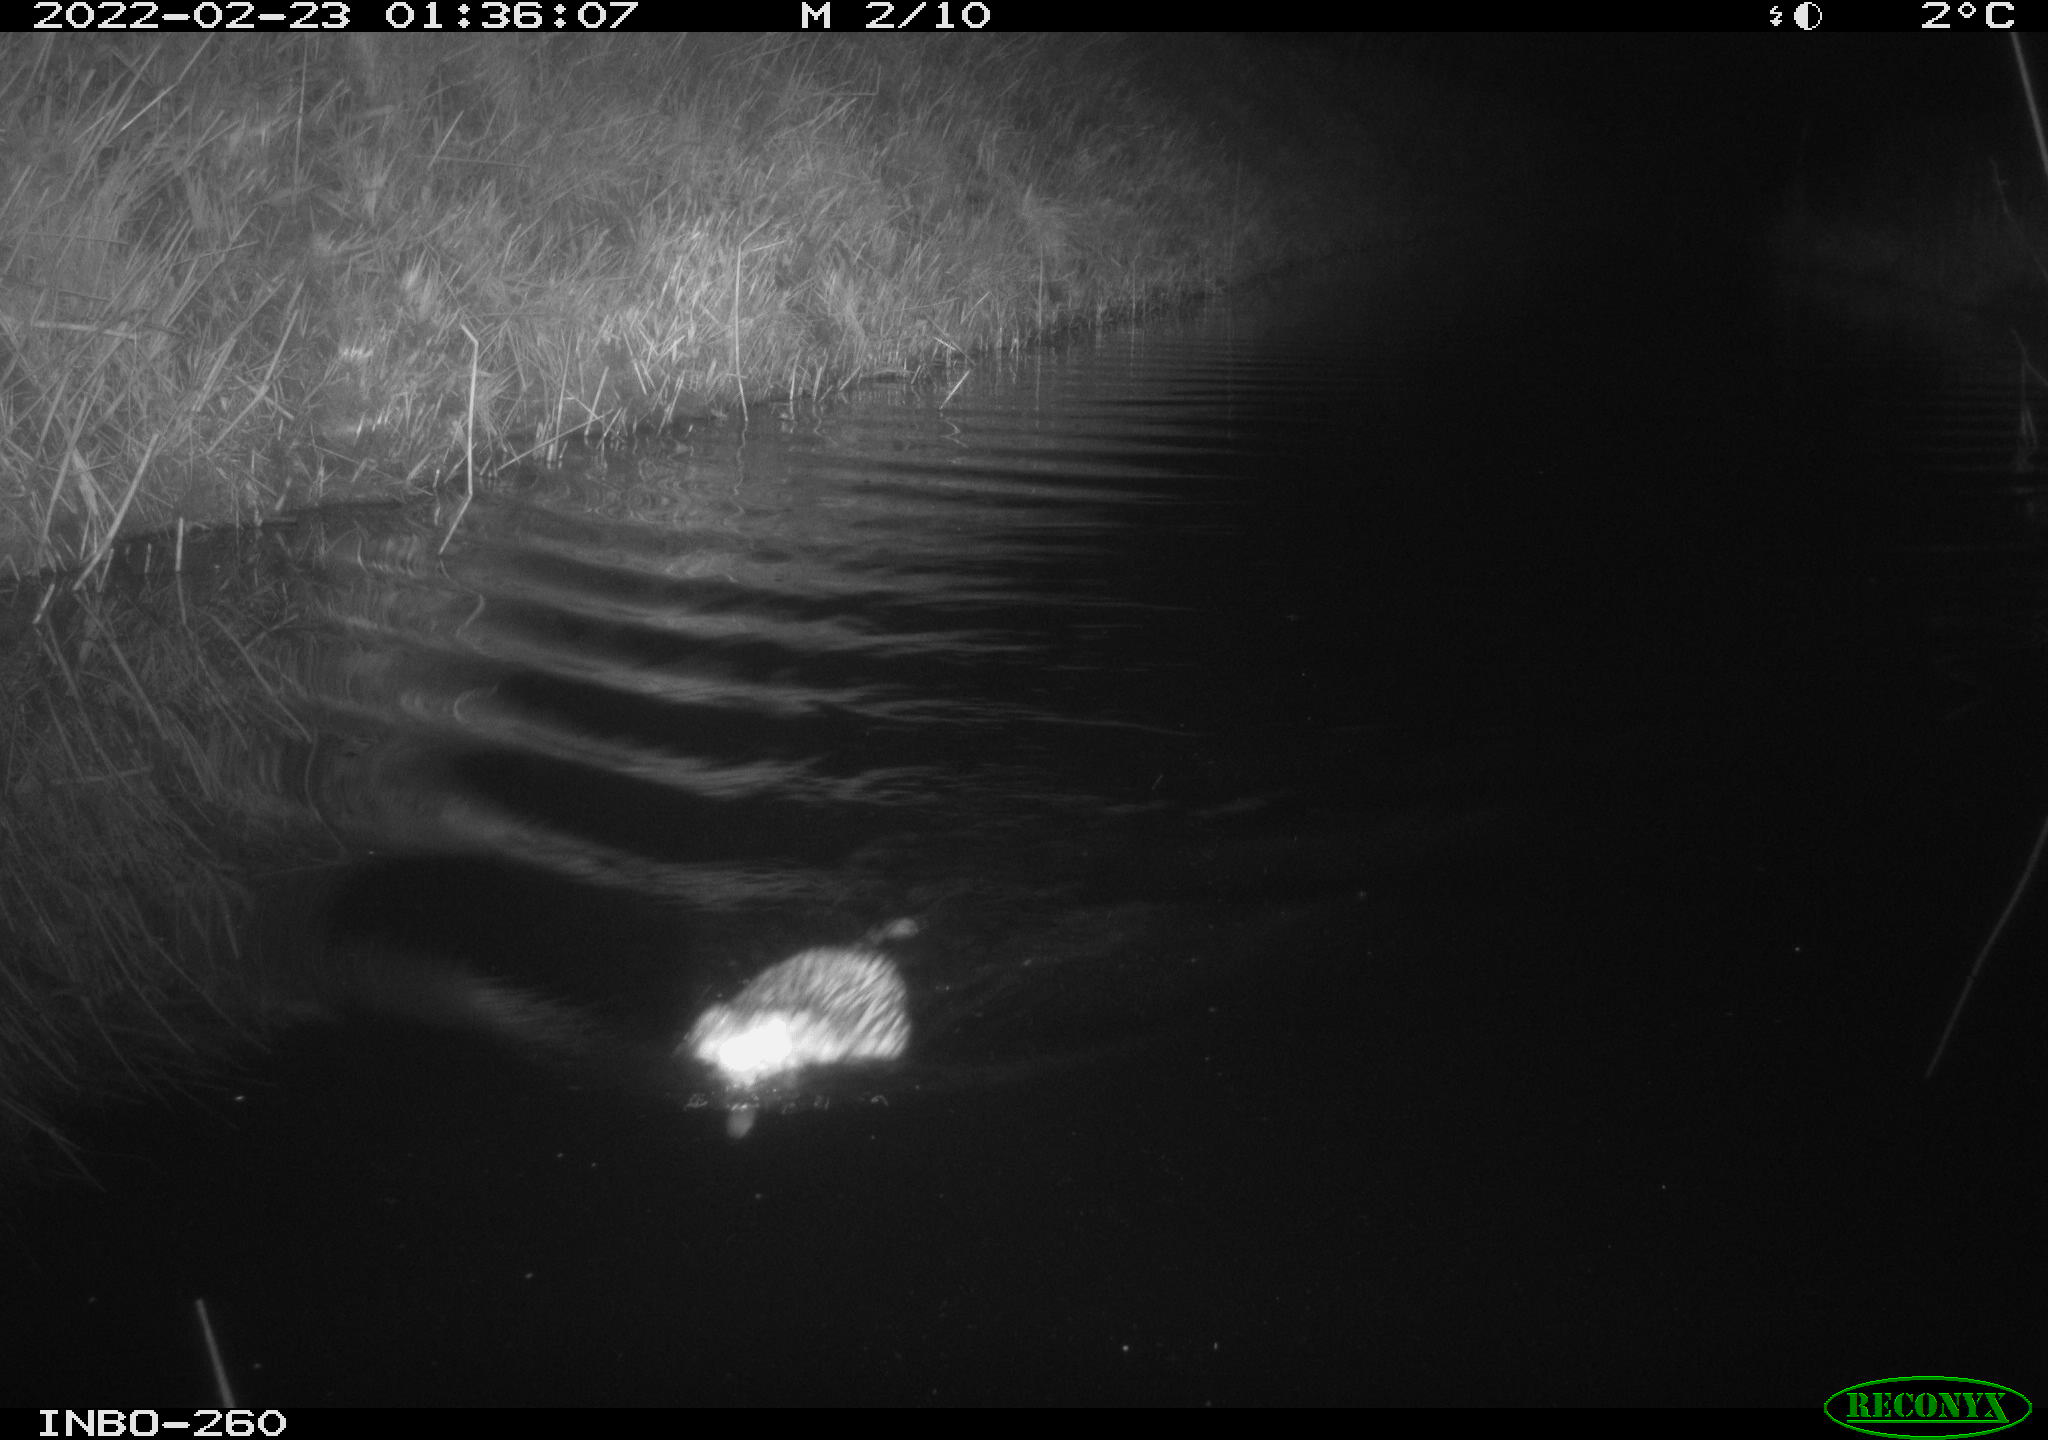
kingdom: Animalia
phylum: Chordata
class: Mammalia
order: Rodentia
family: Cricetidae
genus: Ondatra
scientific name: Ondatra zibethicus
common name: Muskrat
